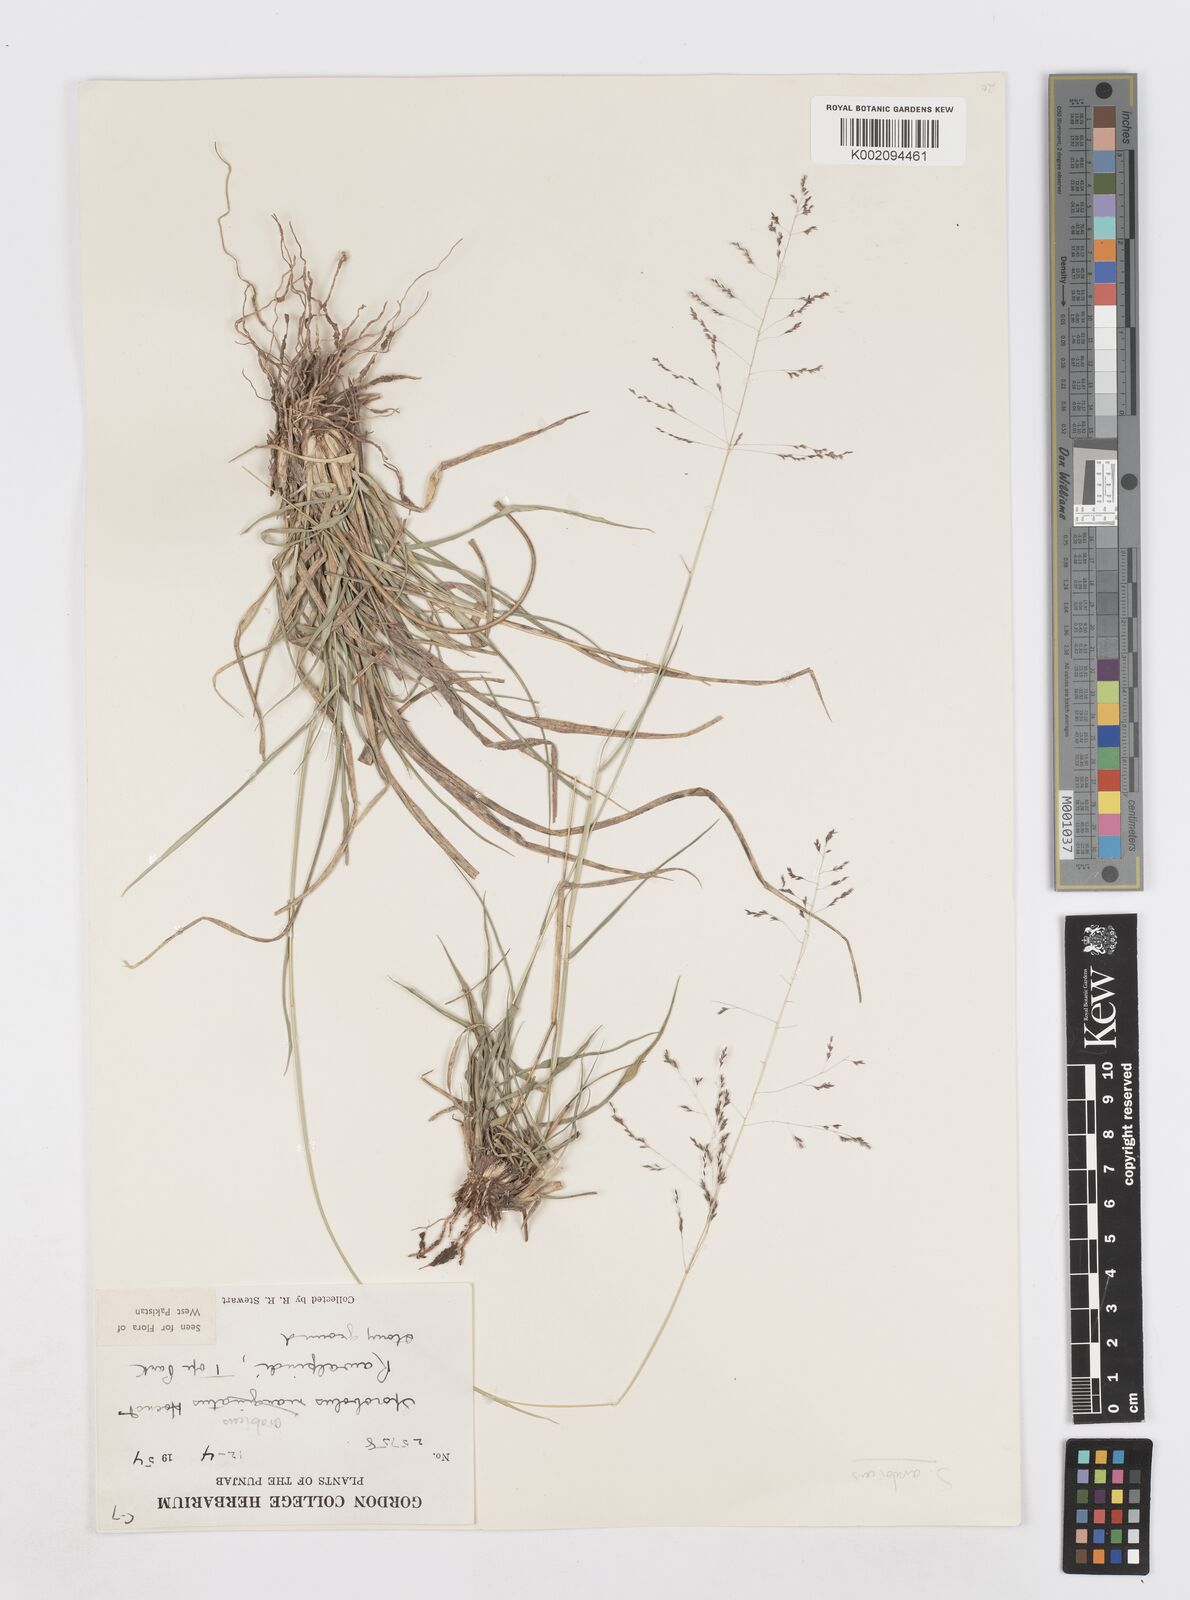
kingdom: Plantae
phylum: Tracheophyta
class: Liliopsida
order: Poales
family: Poaceae
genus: Sporobolus
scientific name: Sporobolus ioclados
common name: Pan dropseed
